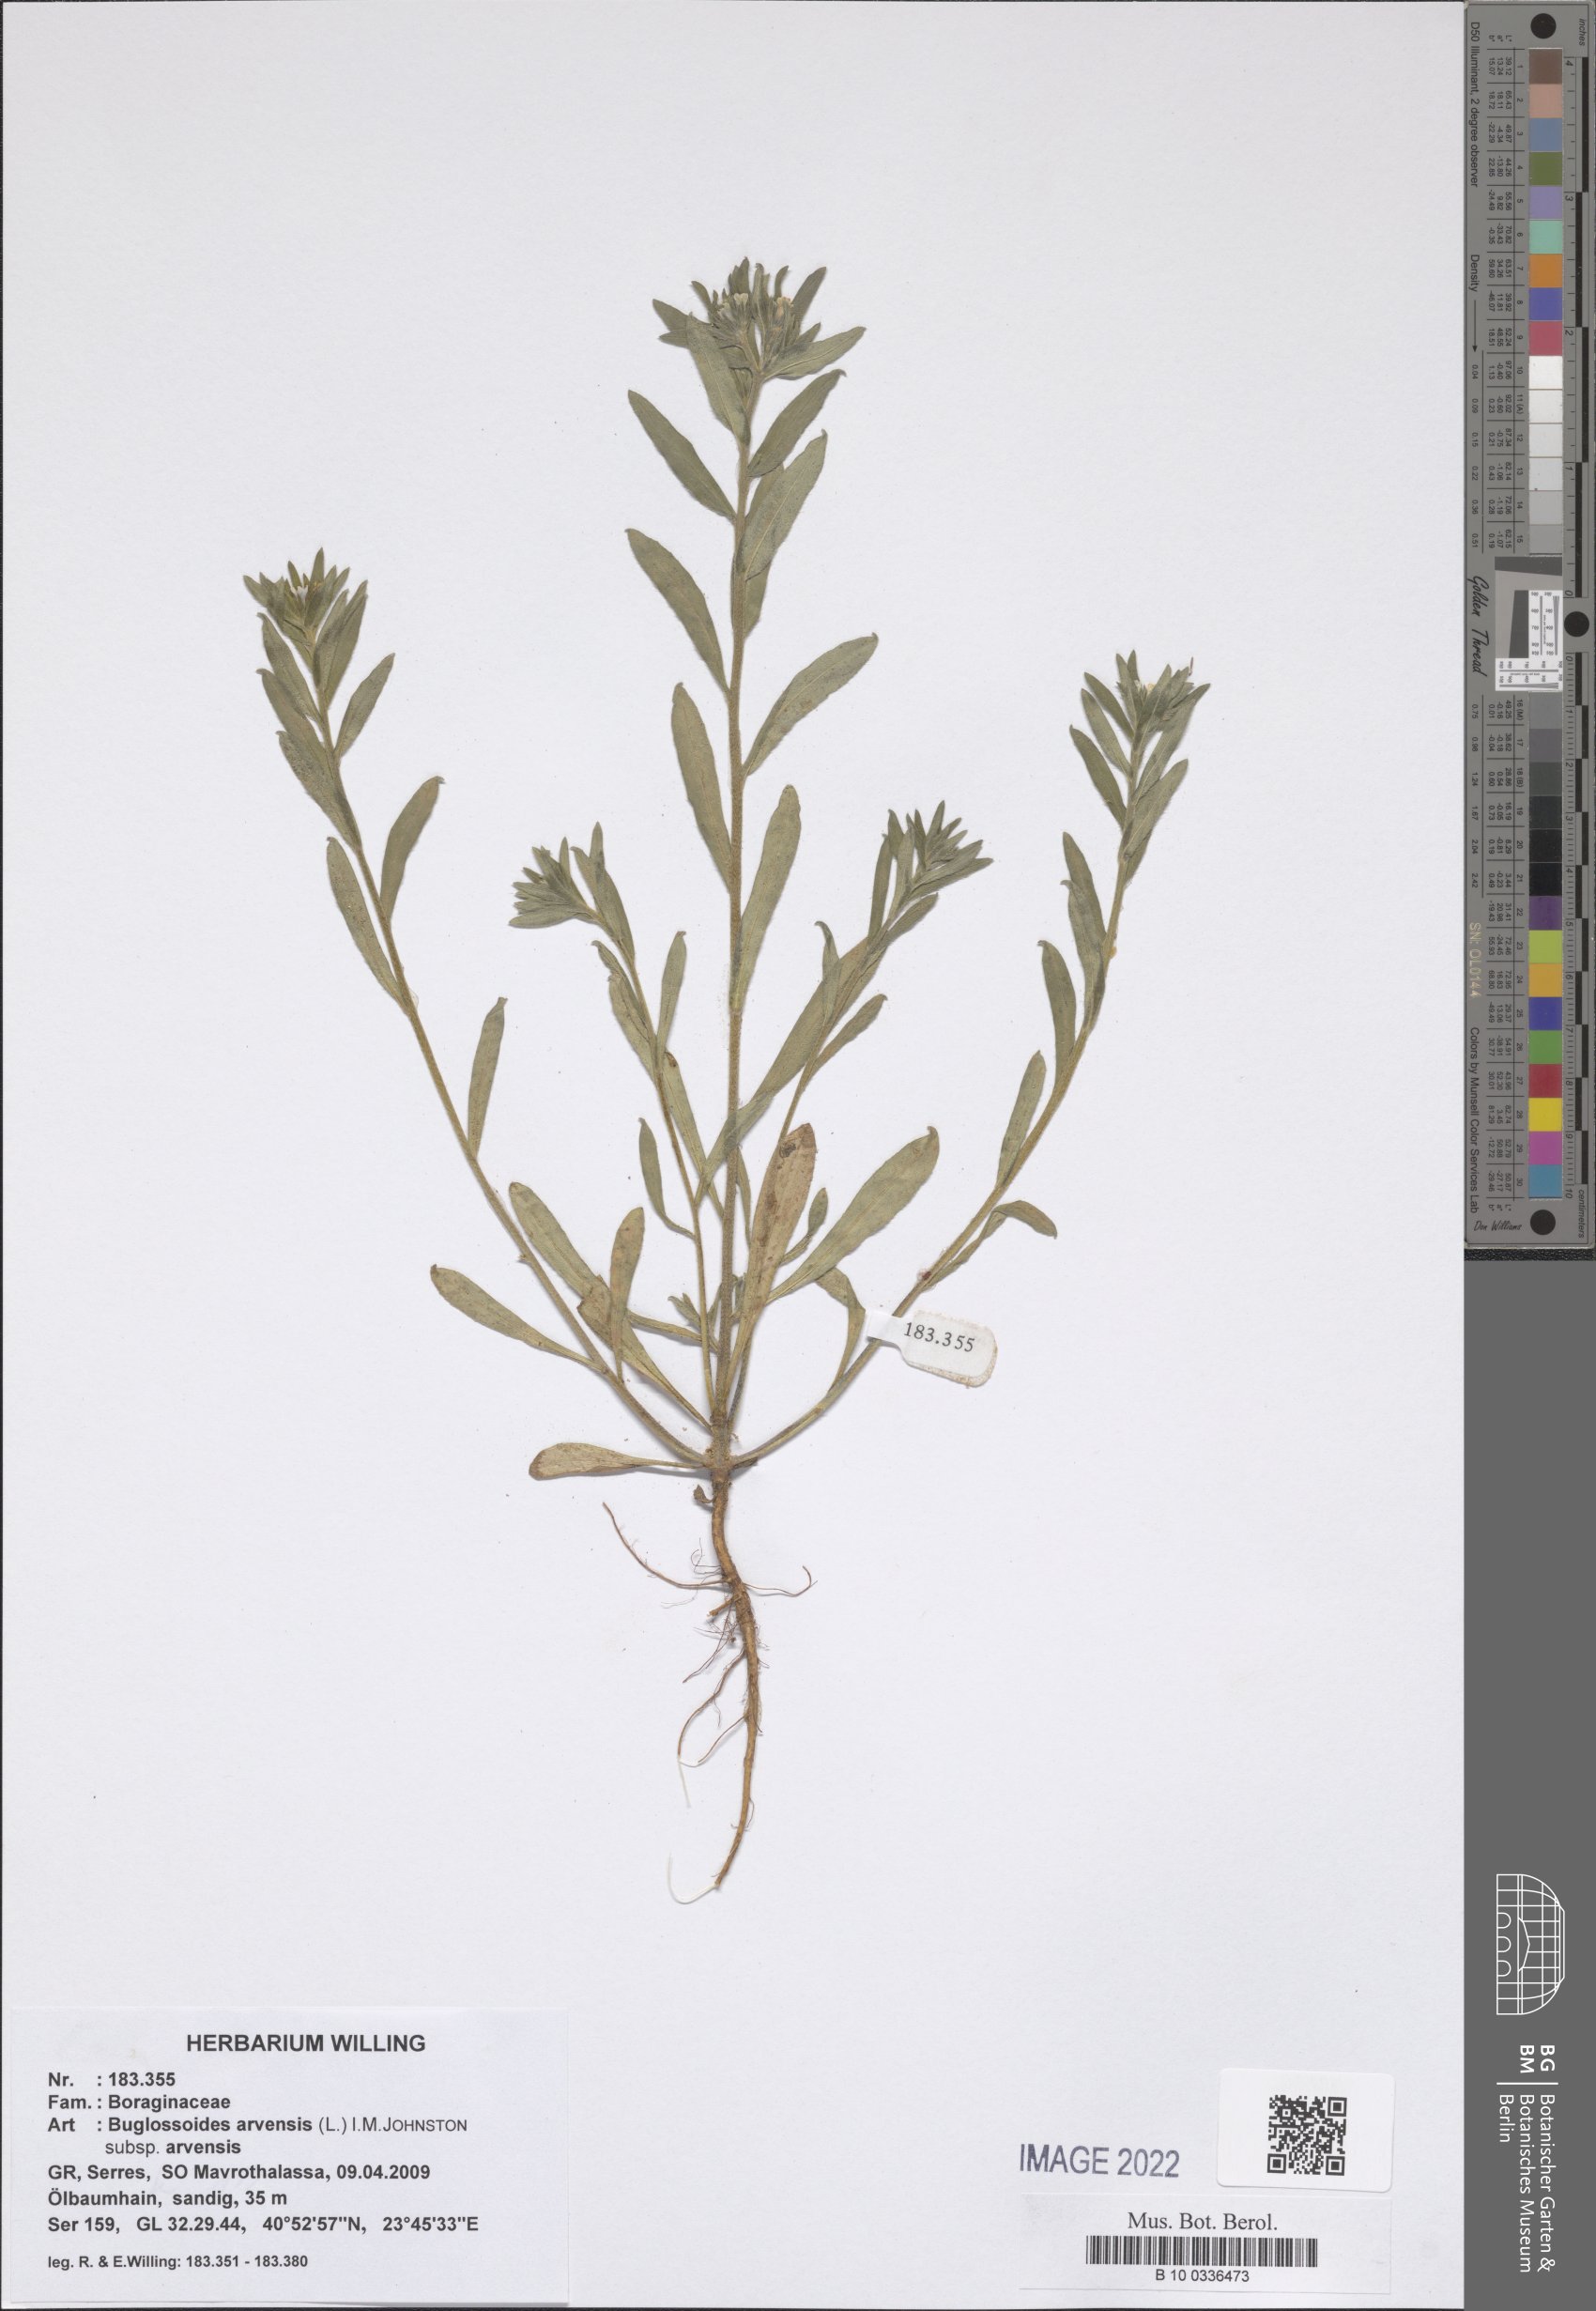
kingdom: Plantae
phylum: Tracheophyta
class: Magnoliopsida
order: Boraginales
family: Boraginaceae
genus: Buglossoides
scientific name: Buglossoides arvensis
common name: Corn gromwell
